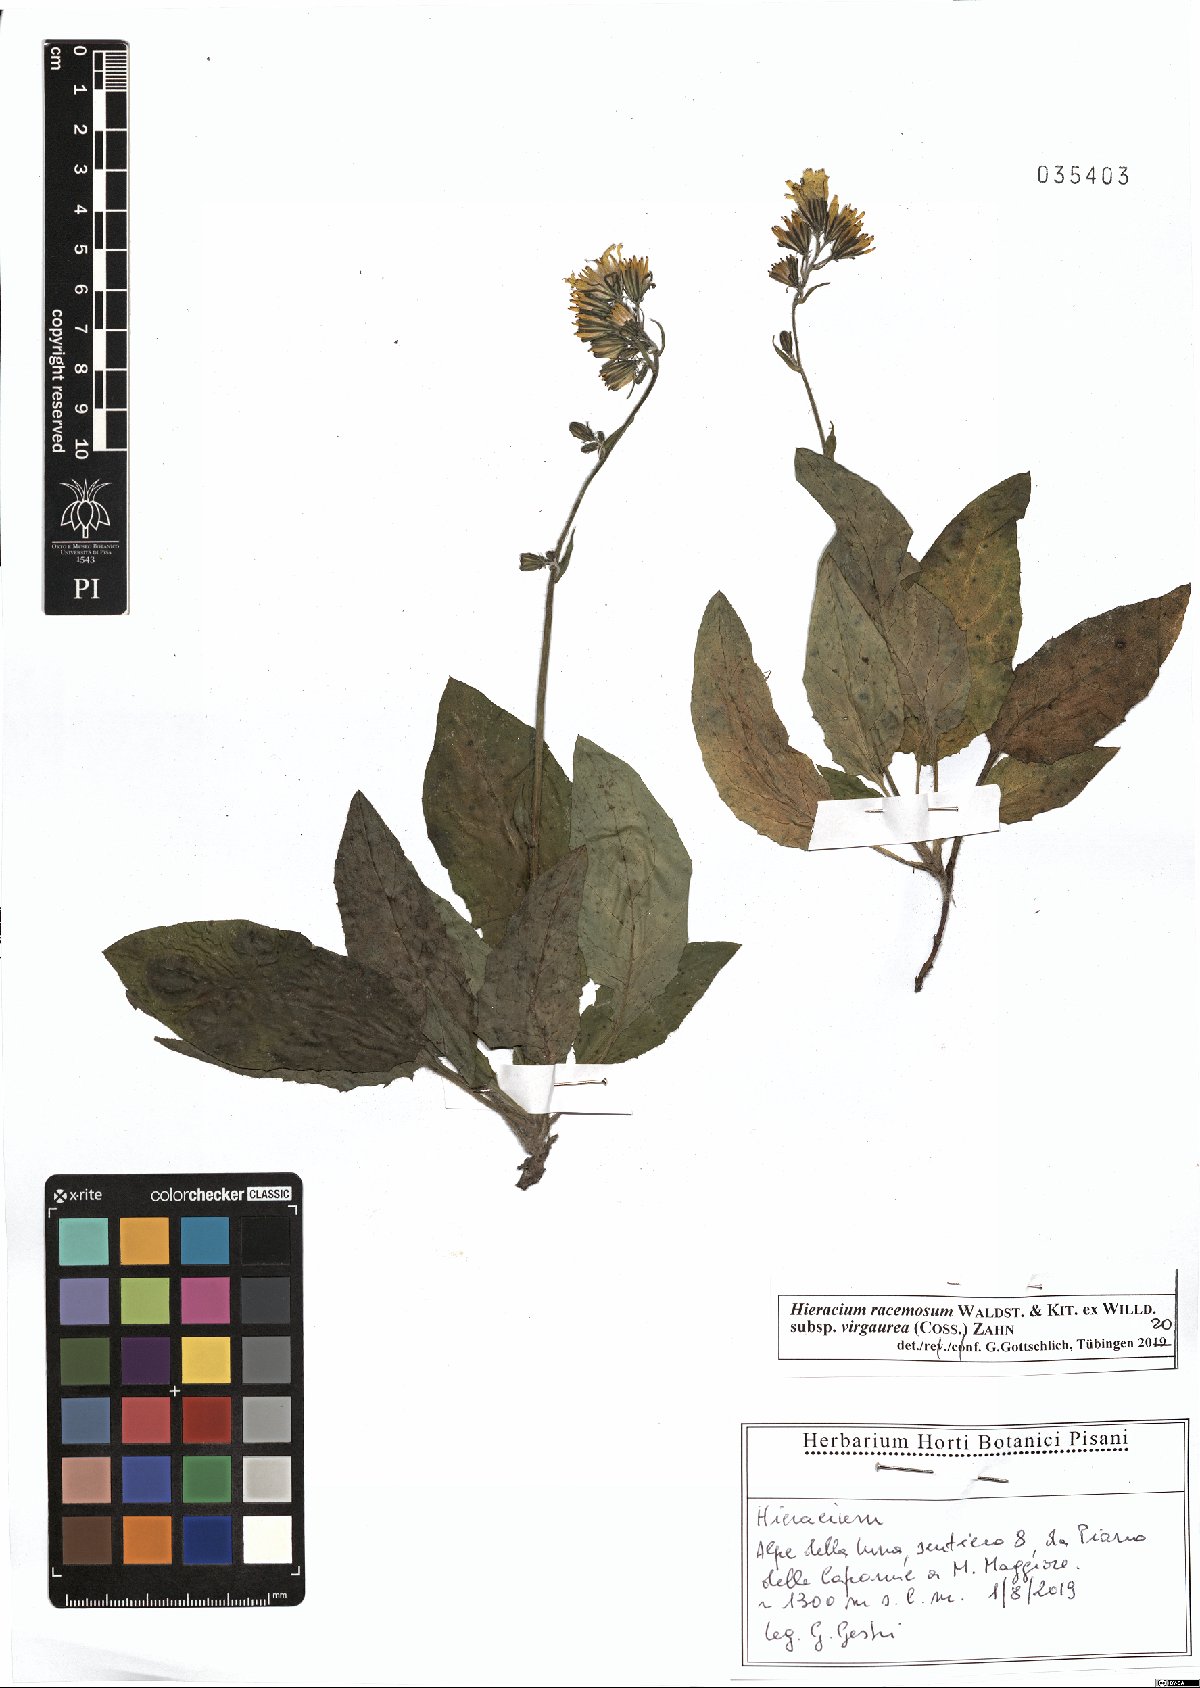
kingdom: Plantae
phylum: Tracheophyta
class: Magnoliopsida
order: Asterales
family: Asteraceae
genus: Hieracium
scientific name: Hieracium racemosum
